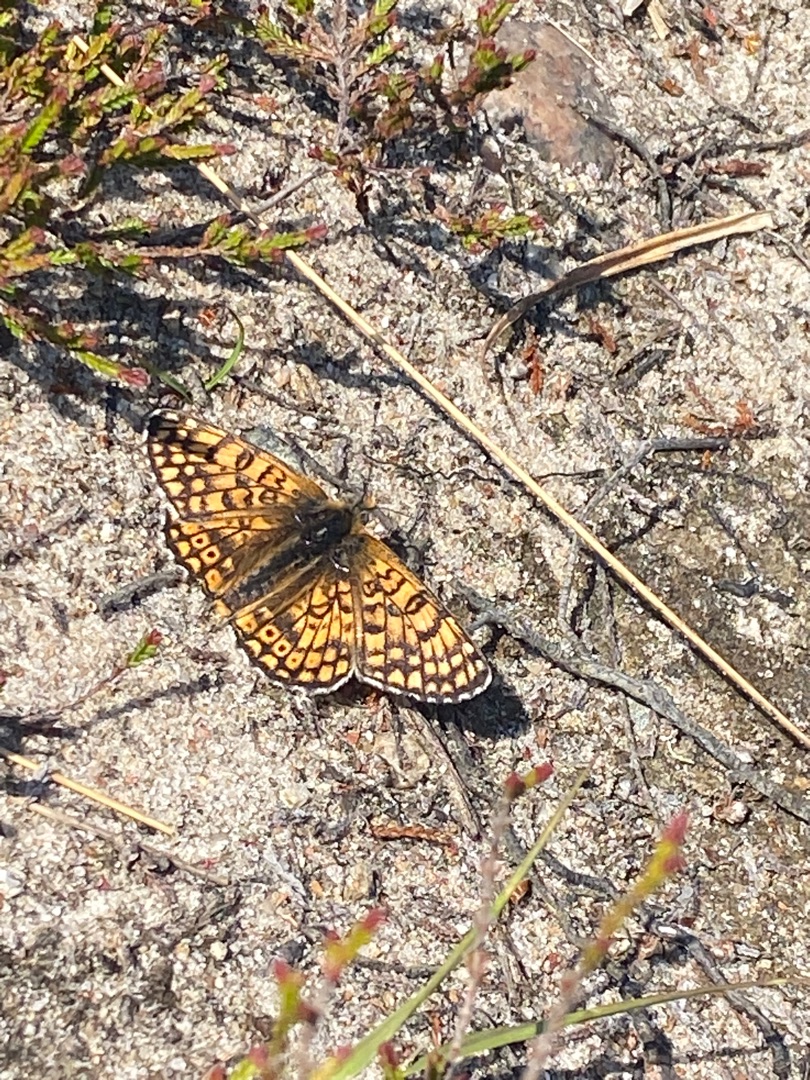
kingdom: Animalia
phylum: Arthropoda
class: Insecta
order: Lepidoptera
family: Nymphalidae
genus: Melitaea
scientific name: Melitaea cinxia
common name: Okkergul pletvinge
